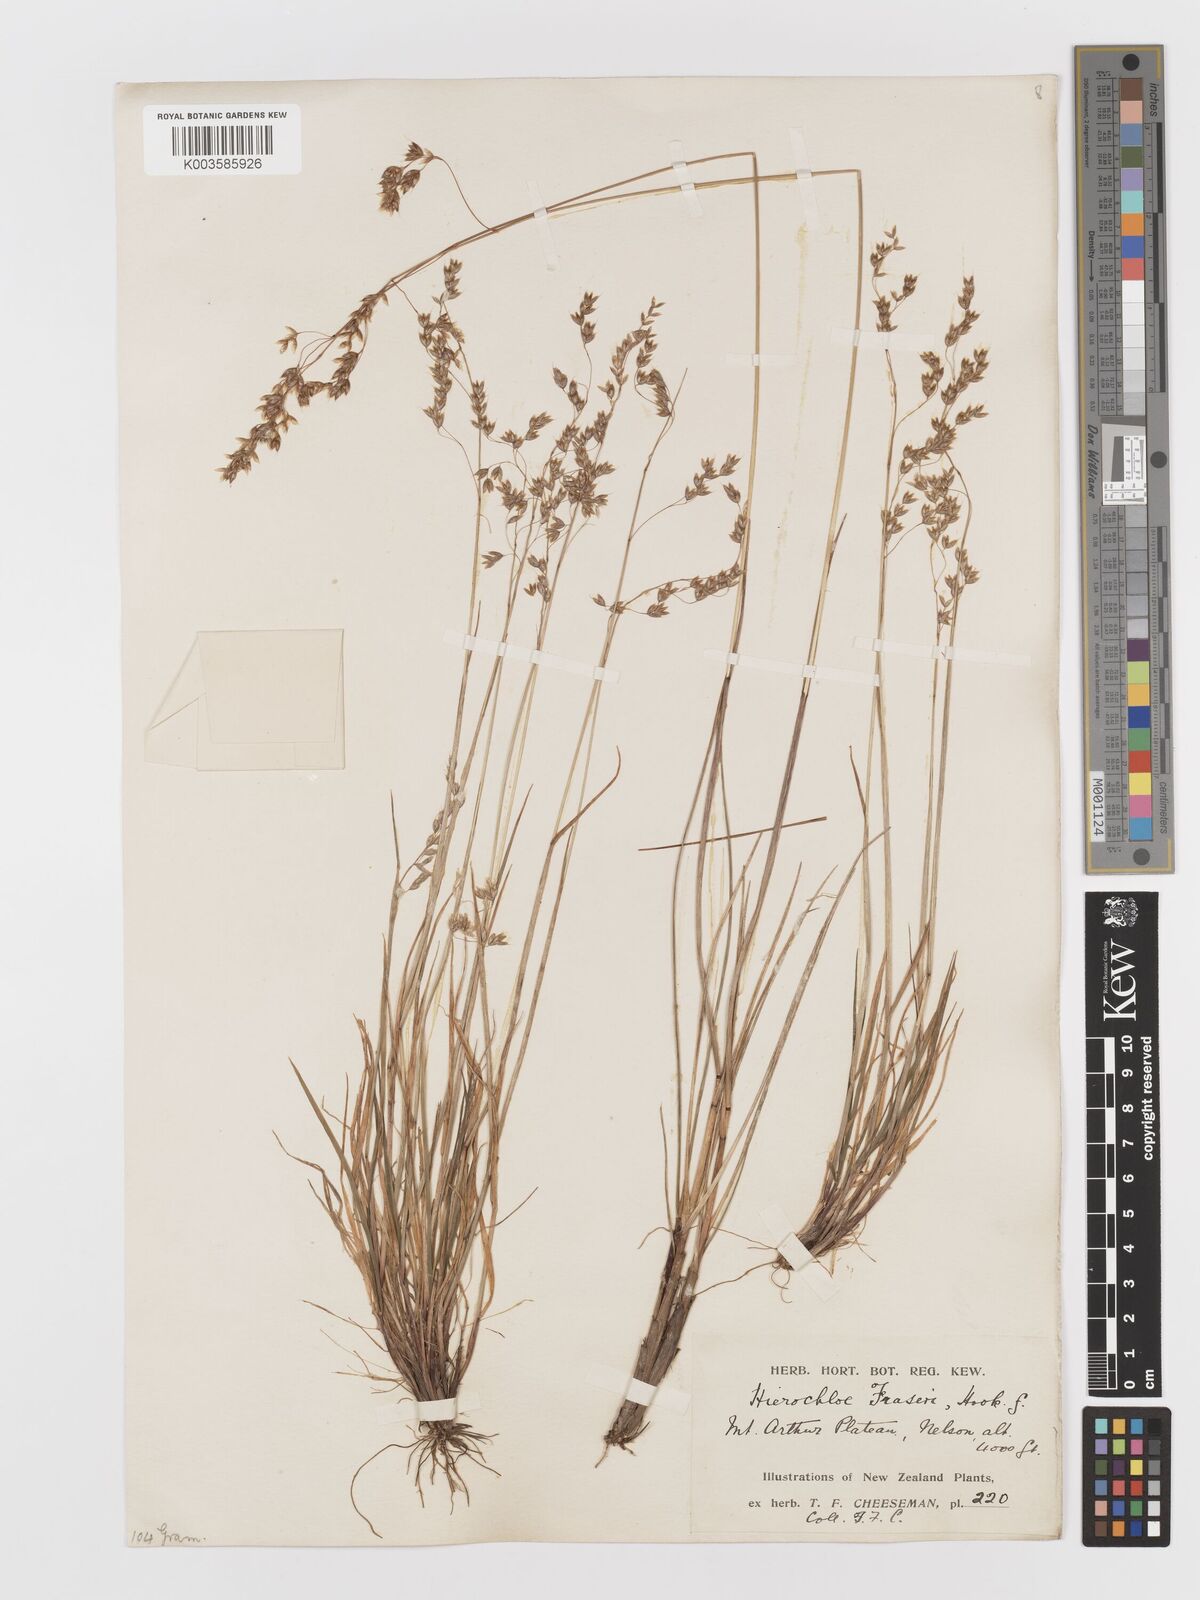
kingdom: Plantae
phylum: Tracheophyta
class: Liliopsida
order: Poales
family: Poaceae
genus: Anthoxanthum
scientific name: Anthoxanthum novae-zelandiae
